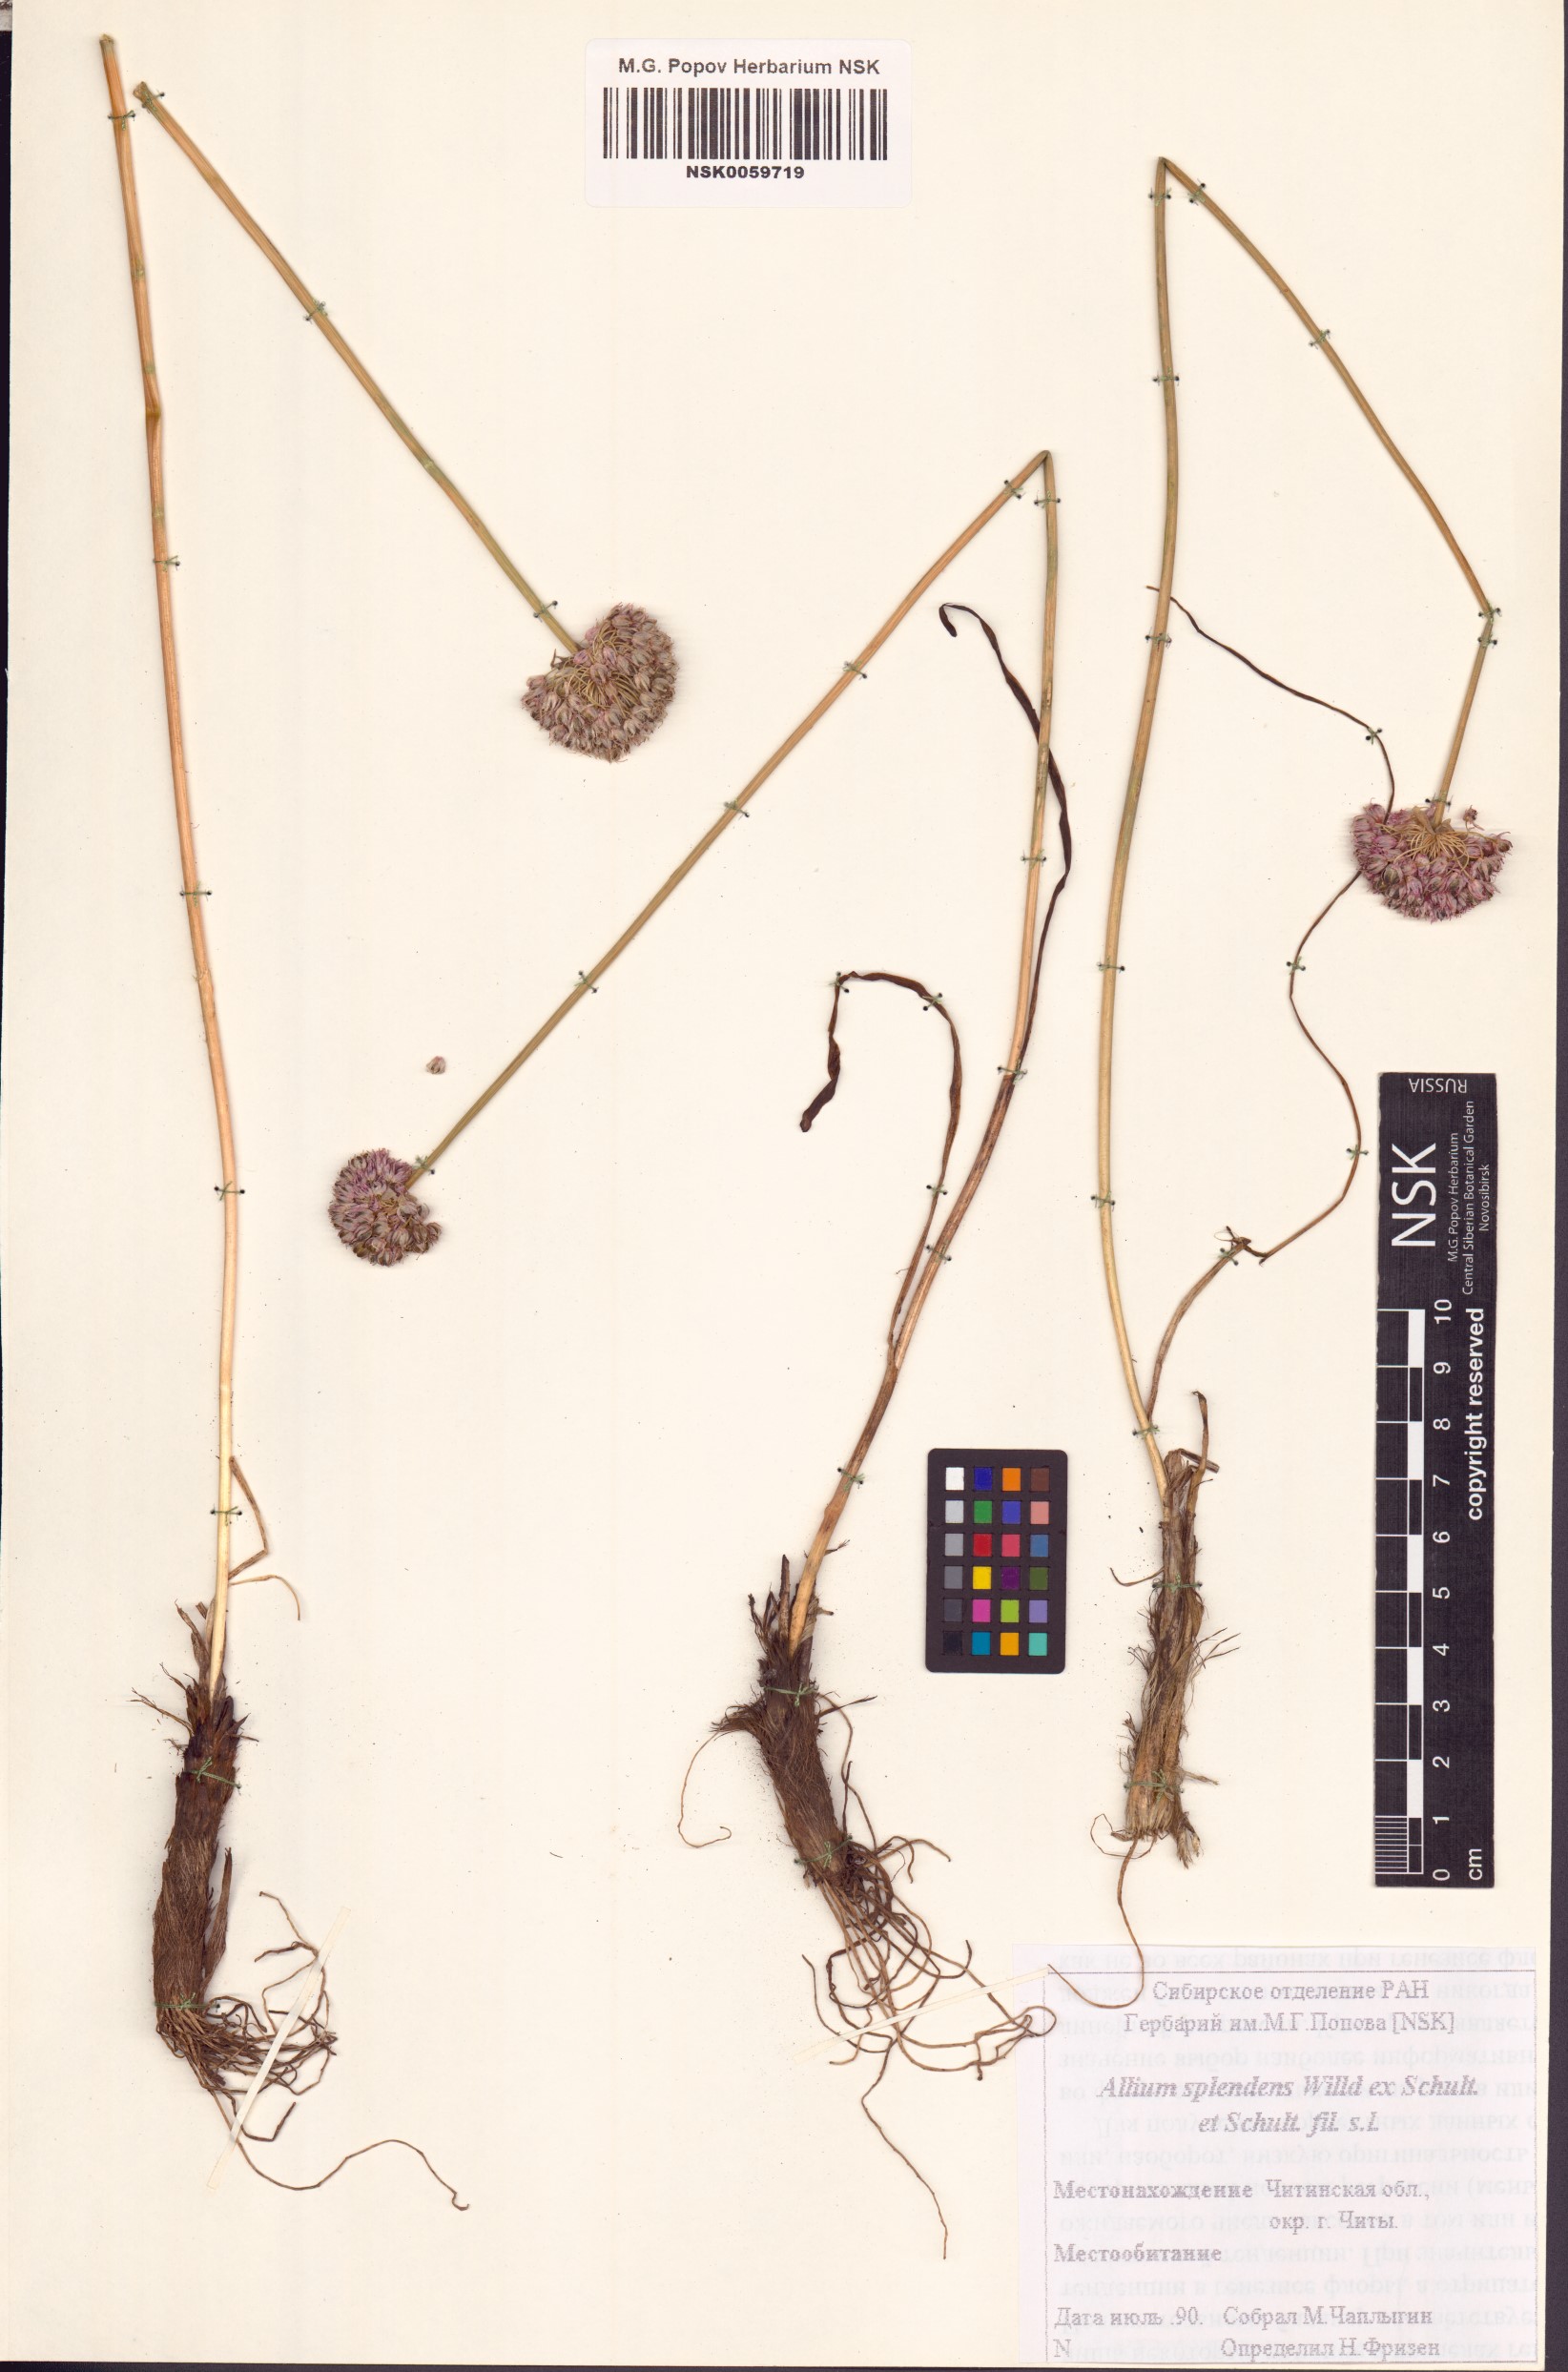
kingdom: Plantae
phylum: Tracheophyta
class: Liliopsida
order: Asparagales
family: Amaryllidaceae
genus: Allium
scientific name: Allium splendens
